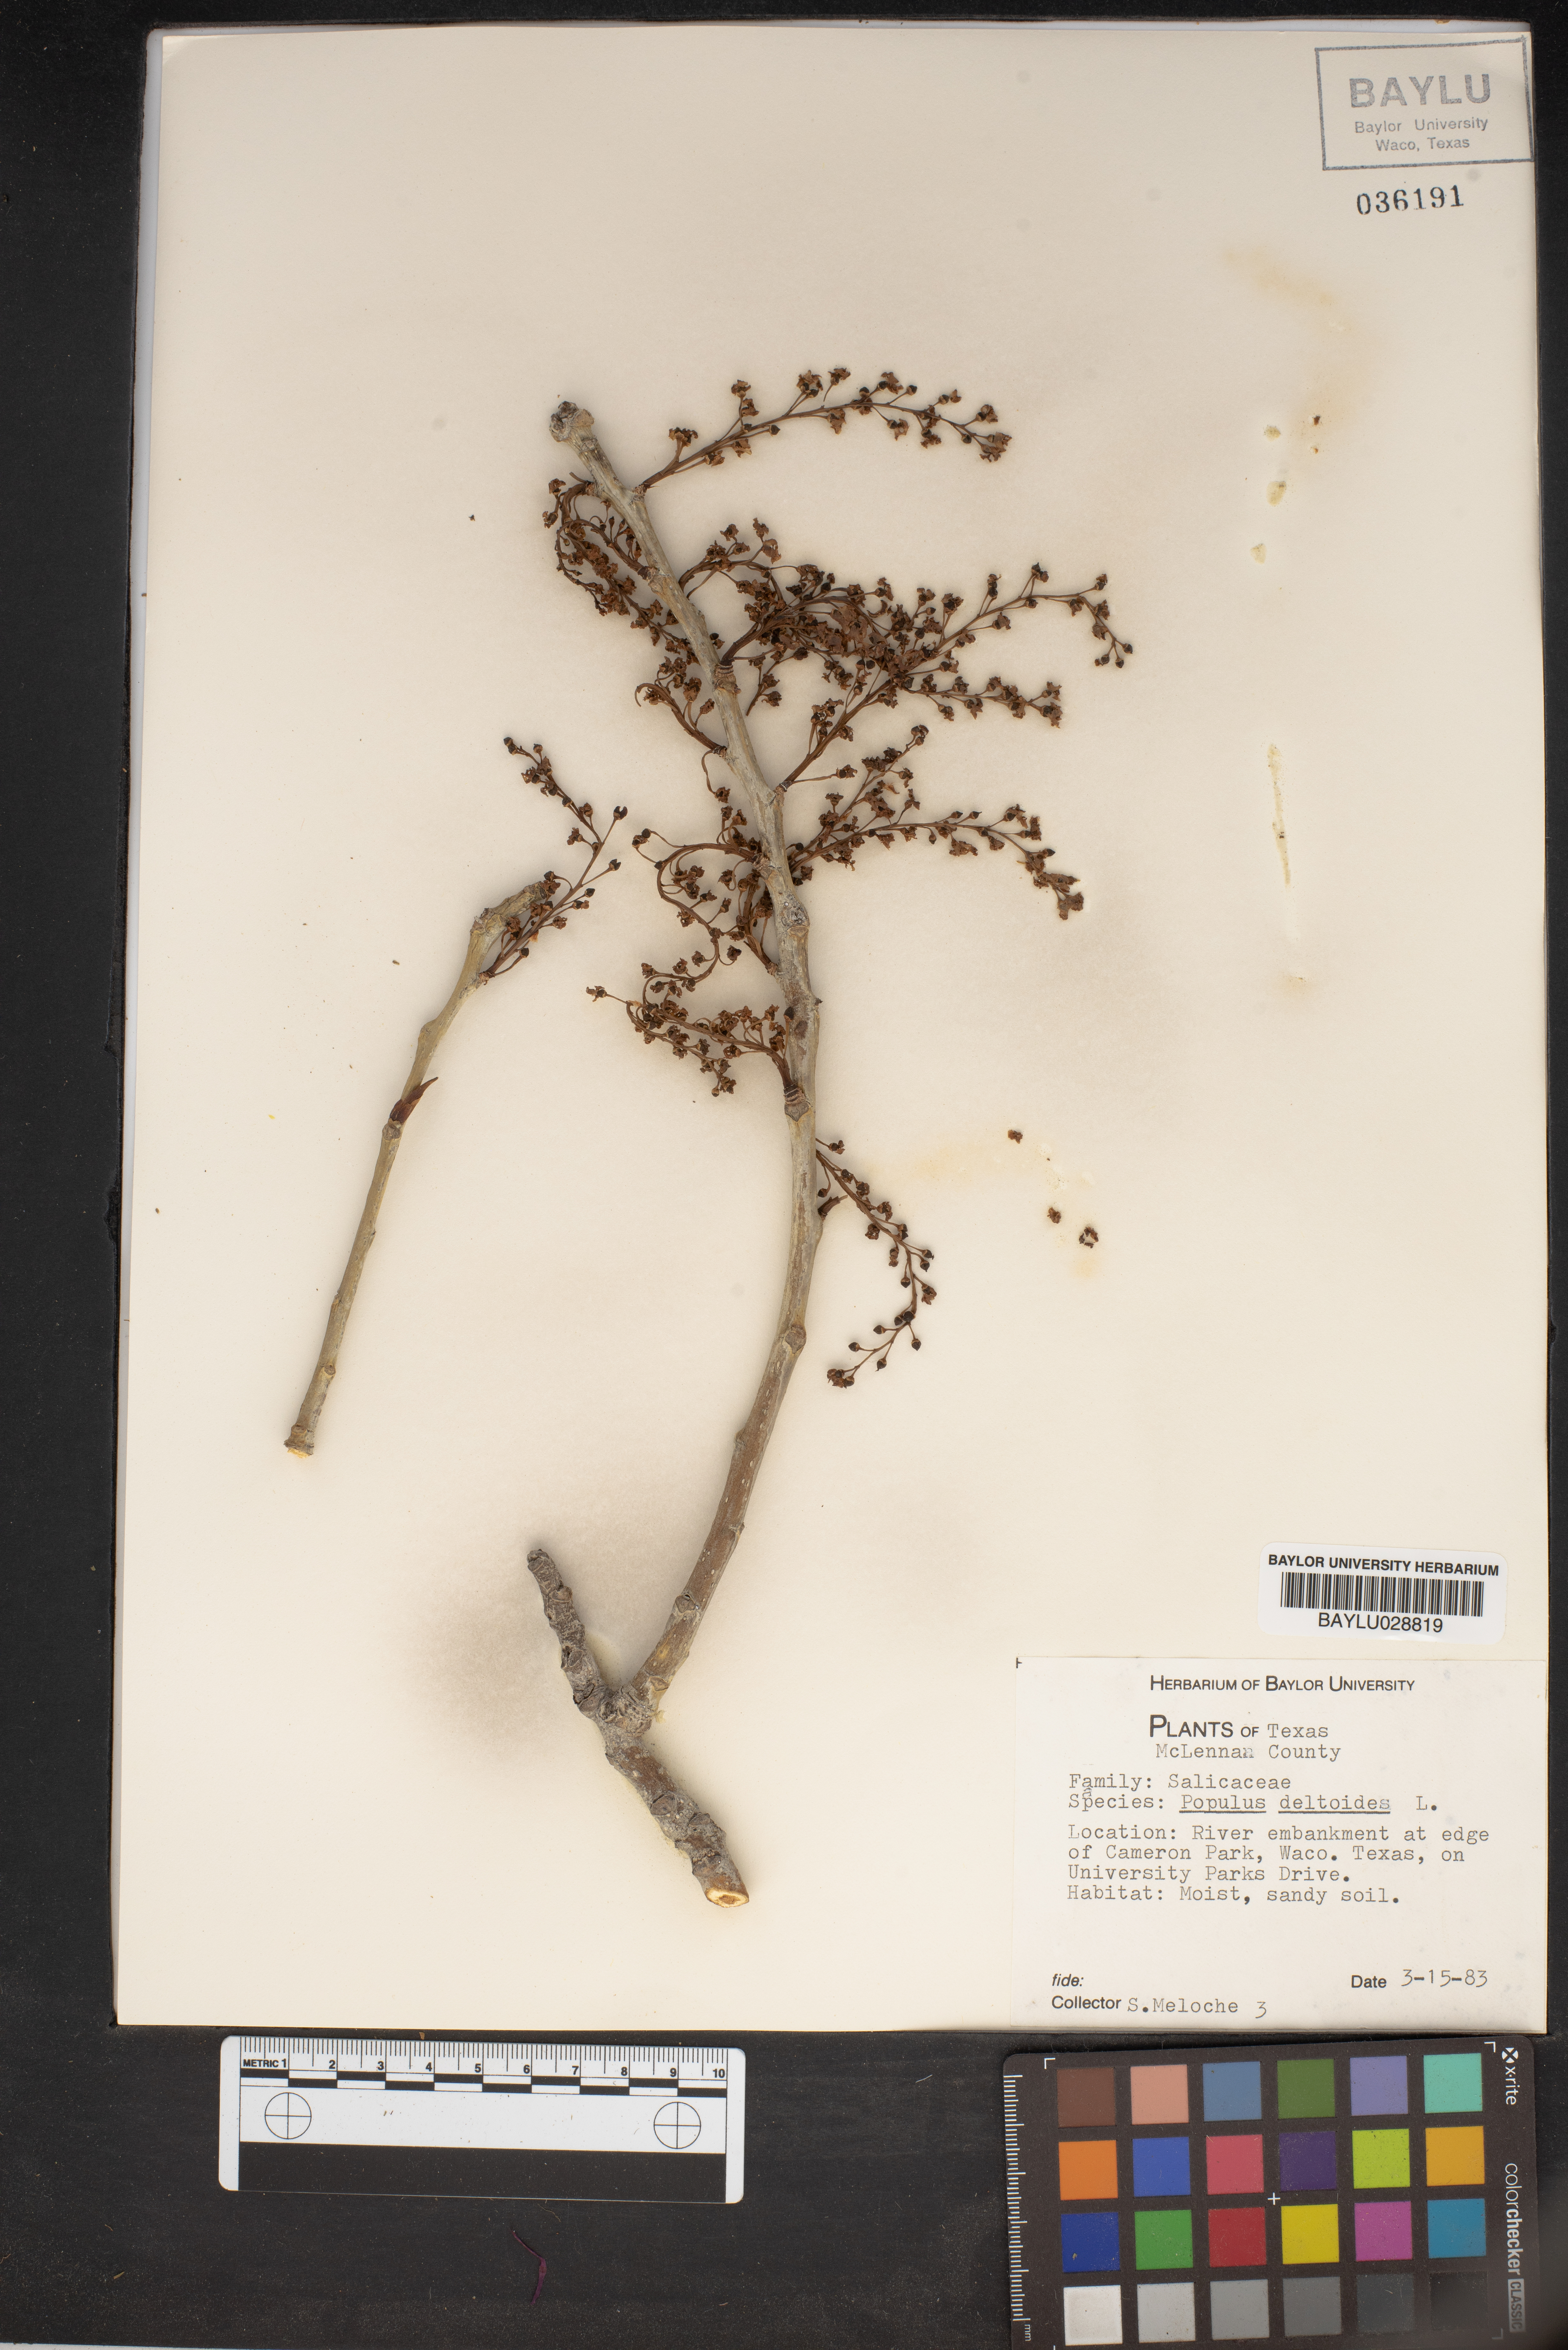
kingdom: Plantae
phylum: Tracheophyta
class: Magnoliopsida
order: Malpighiales
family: Salicaceae
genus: Populus
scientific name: Populus deltoides
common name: Eastern cottonwood
